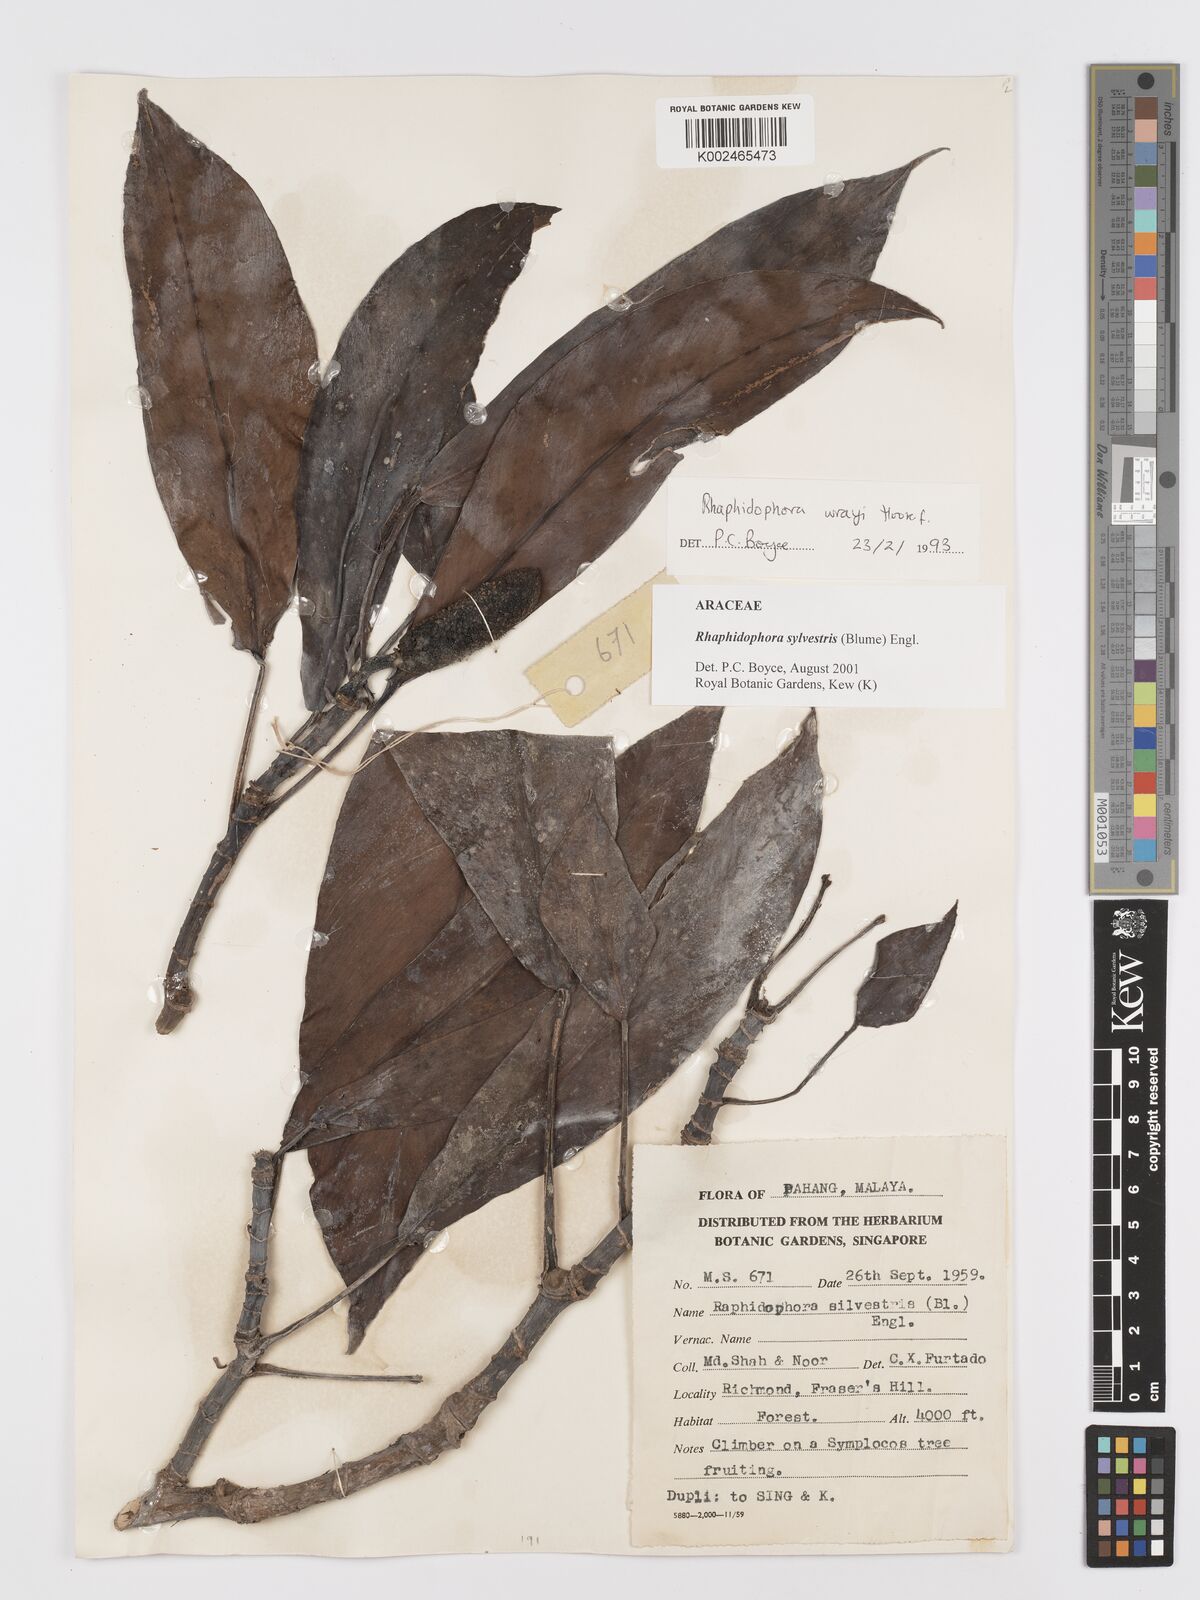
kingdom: Plantae
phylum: Tracheophyta
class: Liliopsida
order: Alismatales
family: Araceae
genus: Rhaphidophora
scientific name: Rhaphidophora sylvestris
